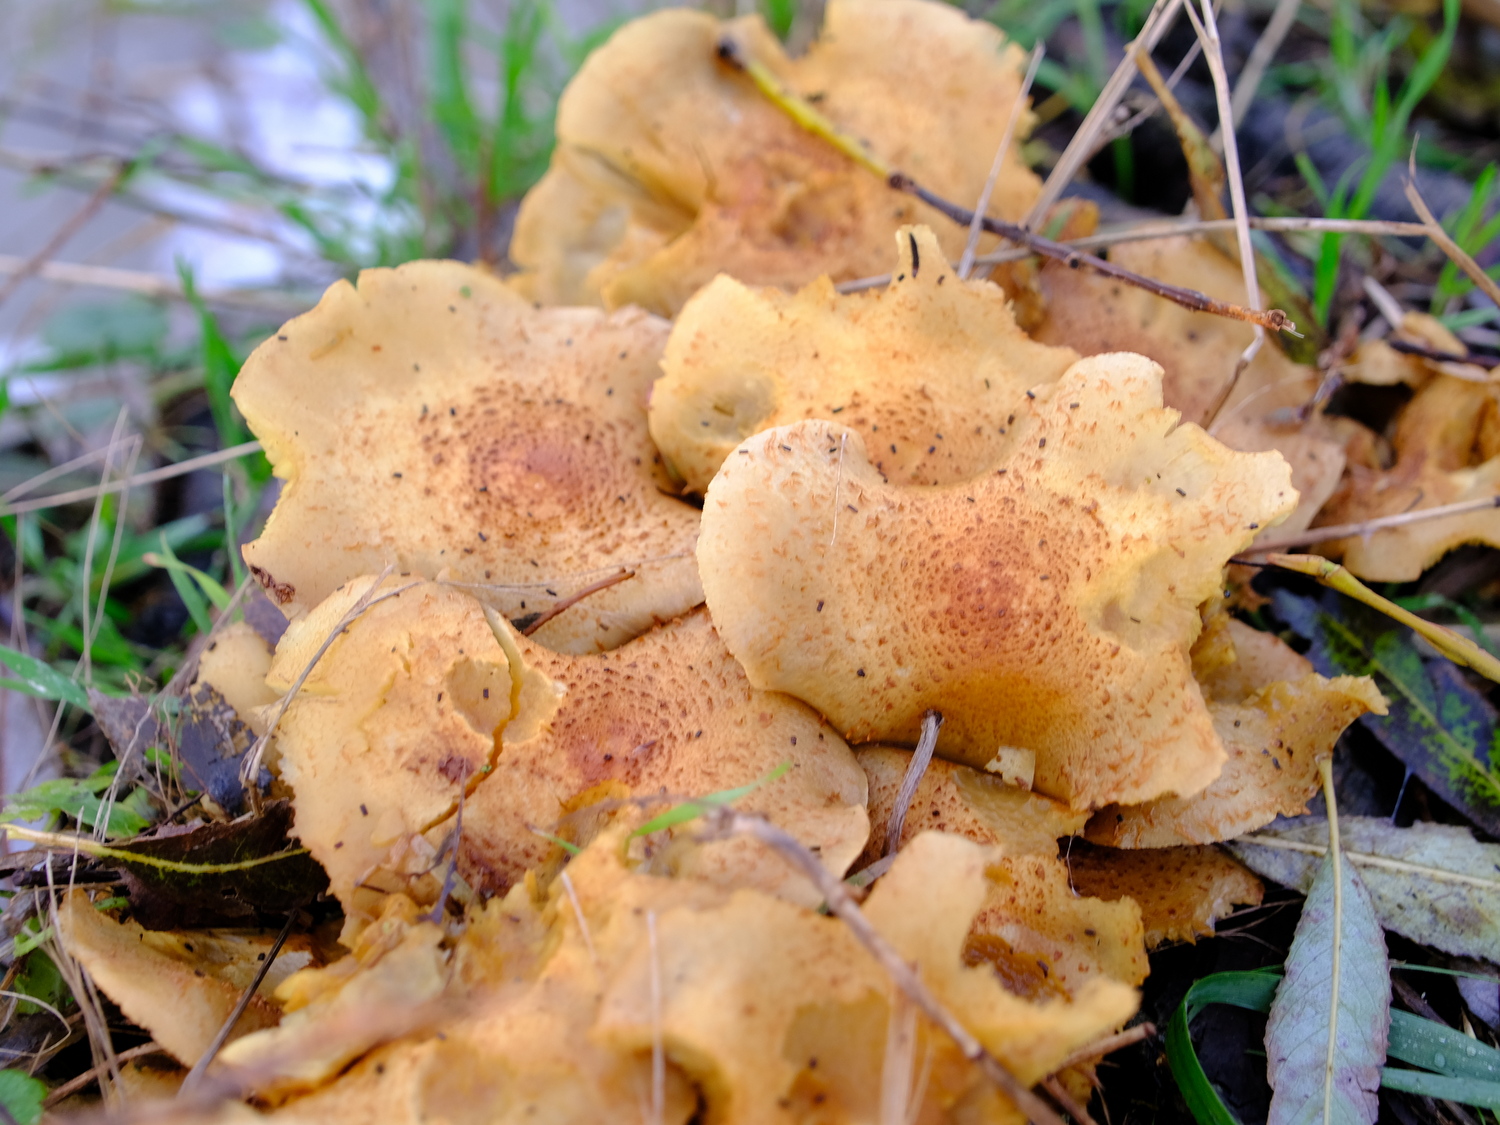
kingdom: Fungi
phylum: Basidiomycota
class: Agaricomycetes
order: Agaricales
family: Strophariaceae
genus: Pholiota
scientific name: Pholiota squarrosa
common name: krumskællet skælhat
